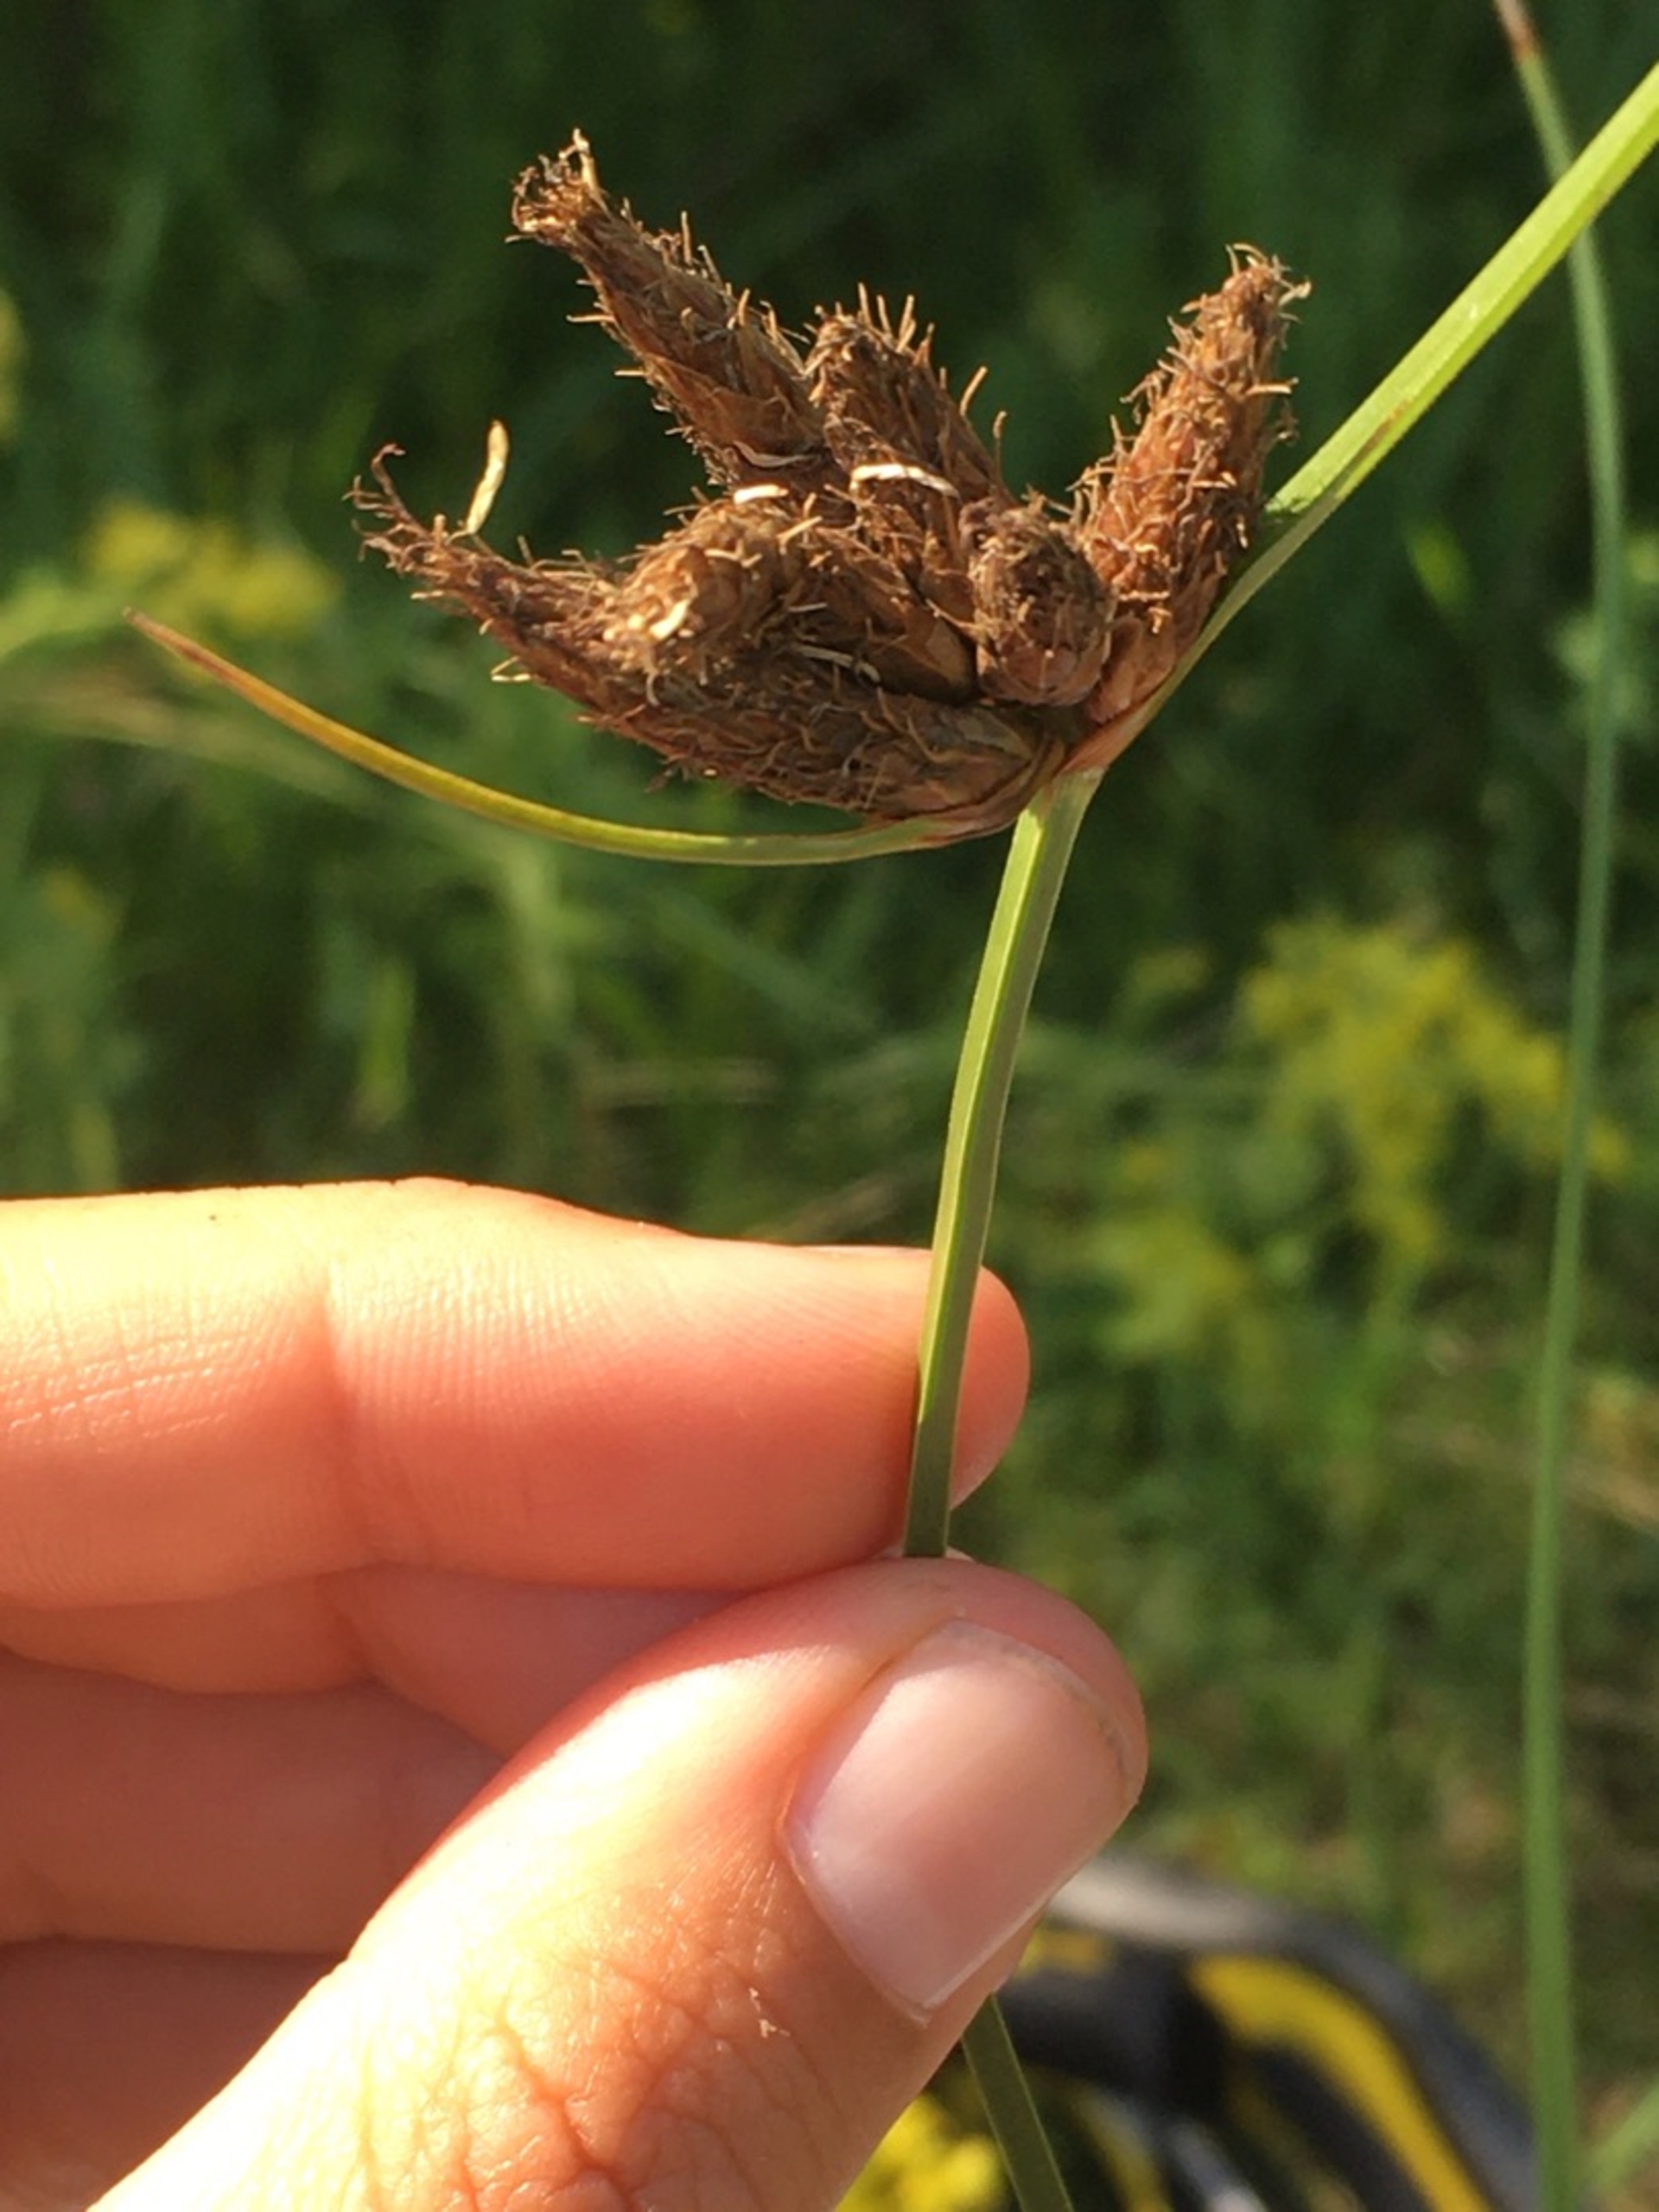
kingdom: Plantae
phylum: Tracheophyta
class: Liliopsida
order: Poales
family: Cyperaceae
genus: Bolboschoenus
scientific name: Bolboschoenus maritimus
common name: Strand-kogleaks
